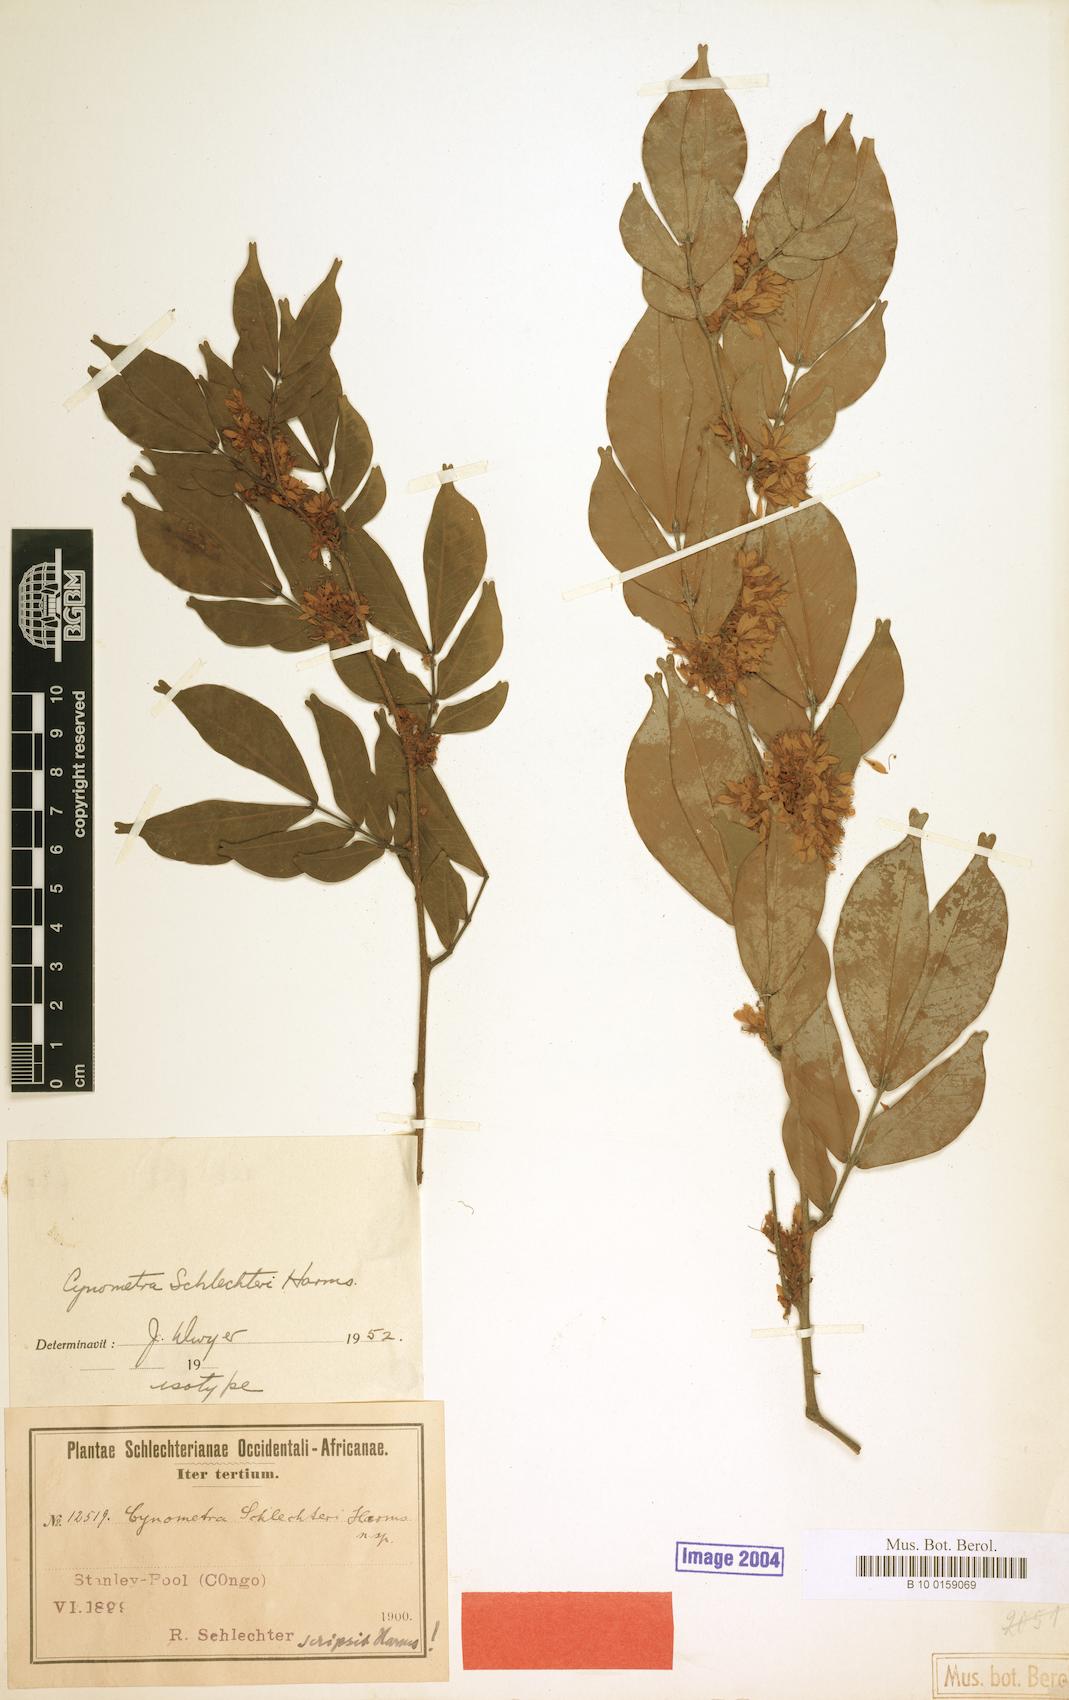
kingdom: Plantae
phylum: Tracheophyta
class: Magnoliopsida
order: Fabales
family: Fabaceae
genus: Cynometra
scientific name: Cynometra schlechteri
